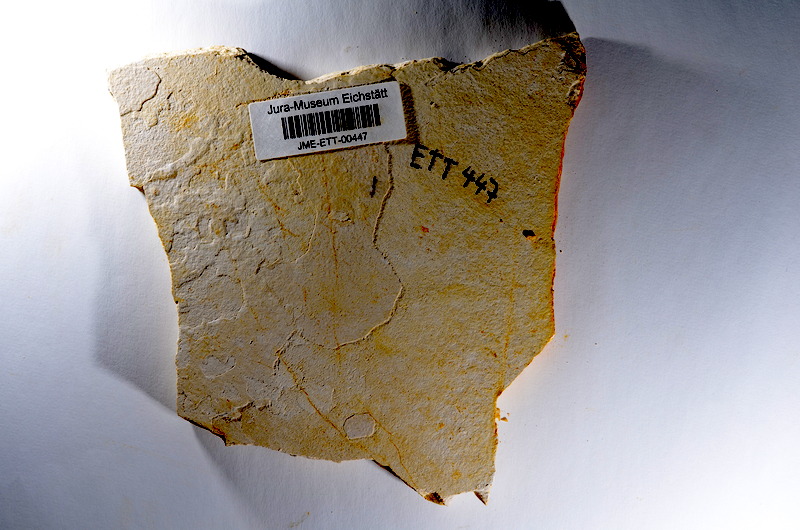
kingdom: Animalia
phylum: Chordata
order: Salmoniformes
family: Orthogonikleithridae
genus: Orthogonikleithrus
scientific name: Orthogonikleithrus hoelli
